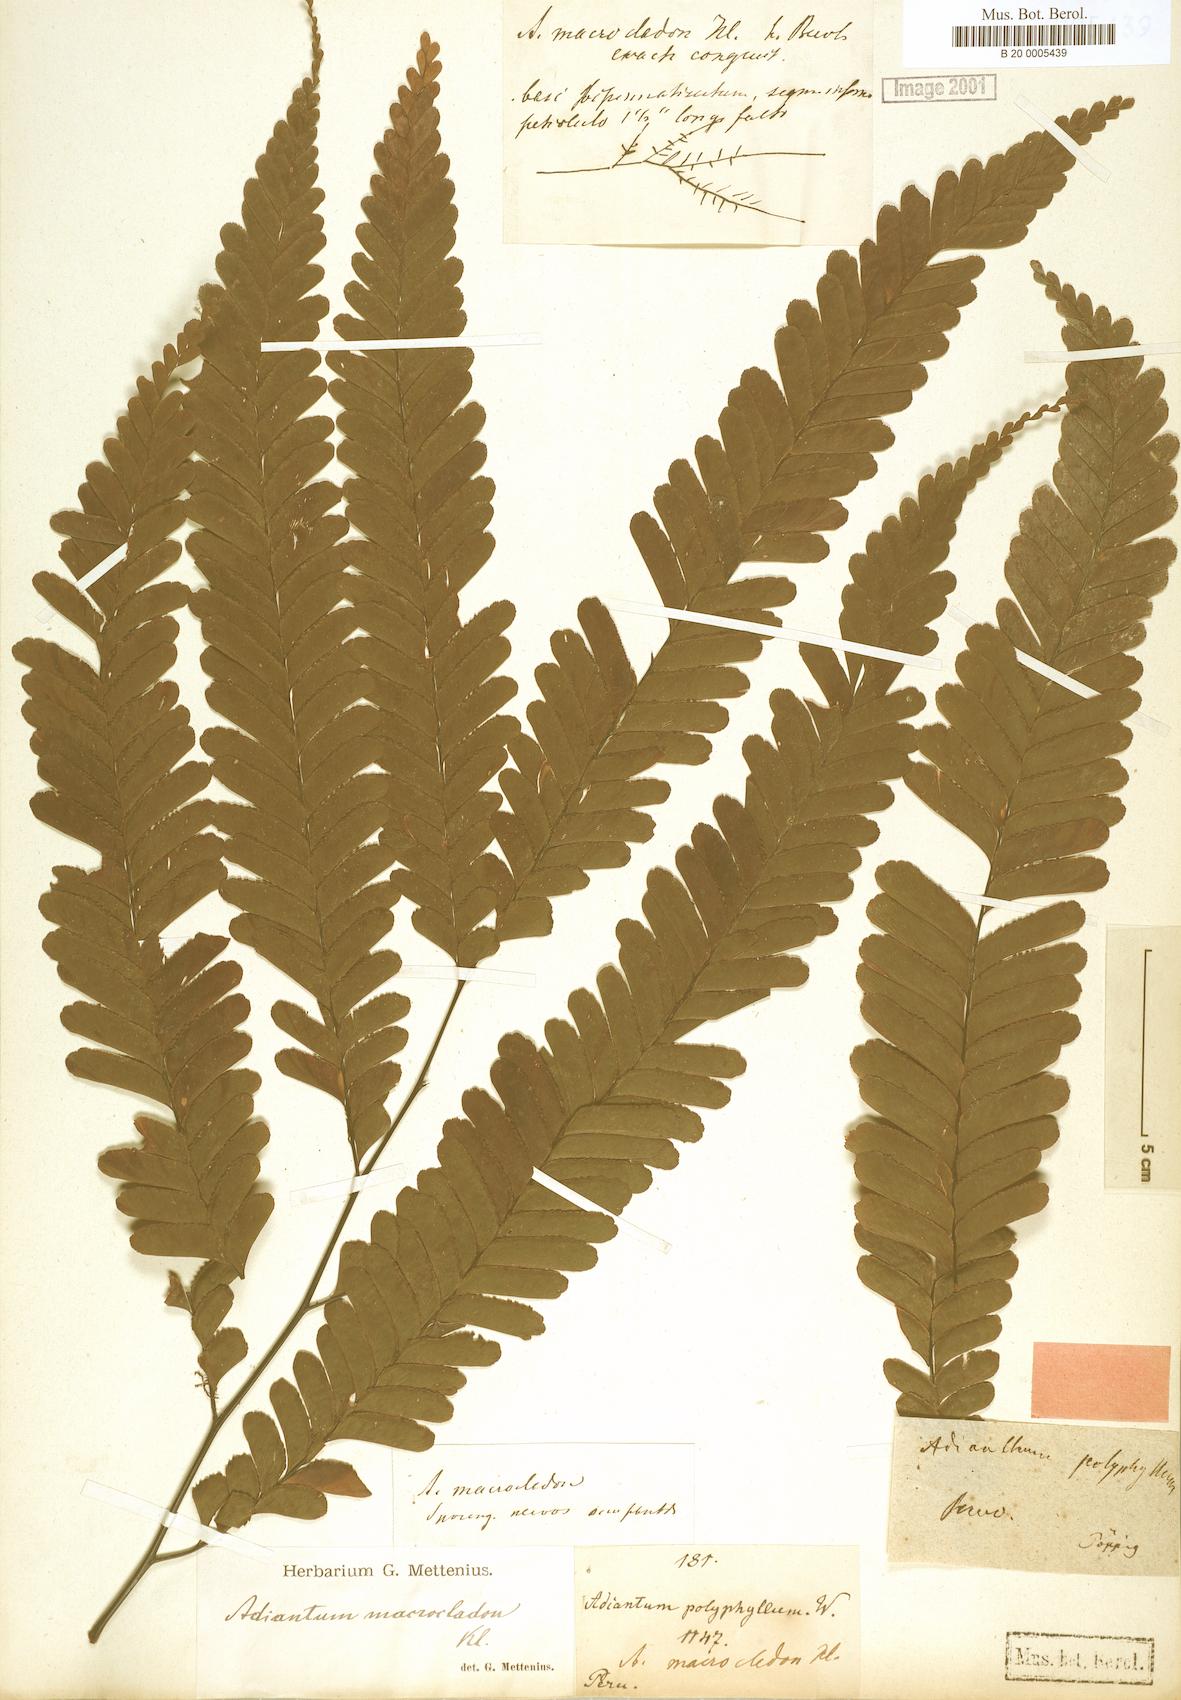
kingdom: Plantae
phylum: Tracheophyta
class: Polypodiopsida
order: Polypodiales
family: Pteridaceae
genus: Adiantum
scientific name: Adiantum macrocladum
